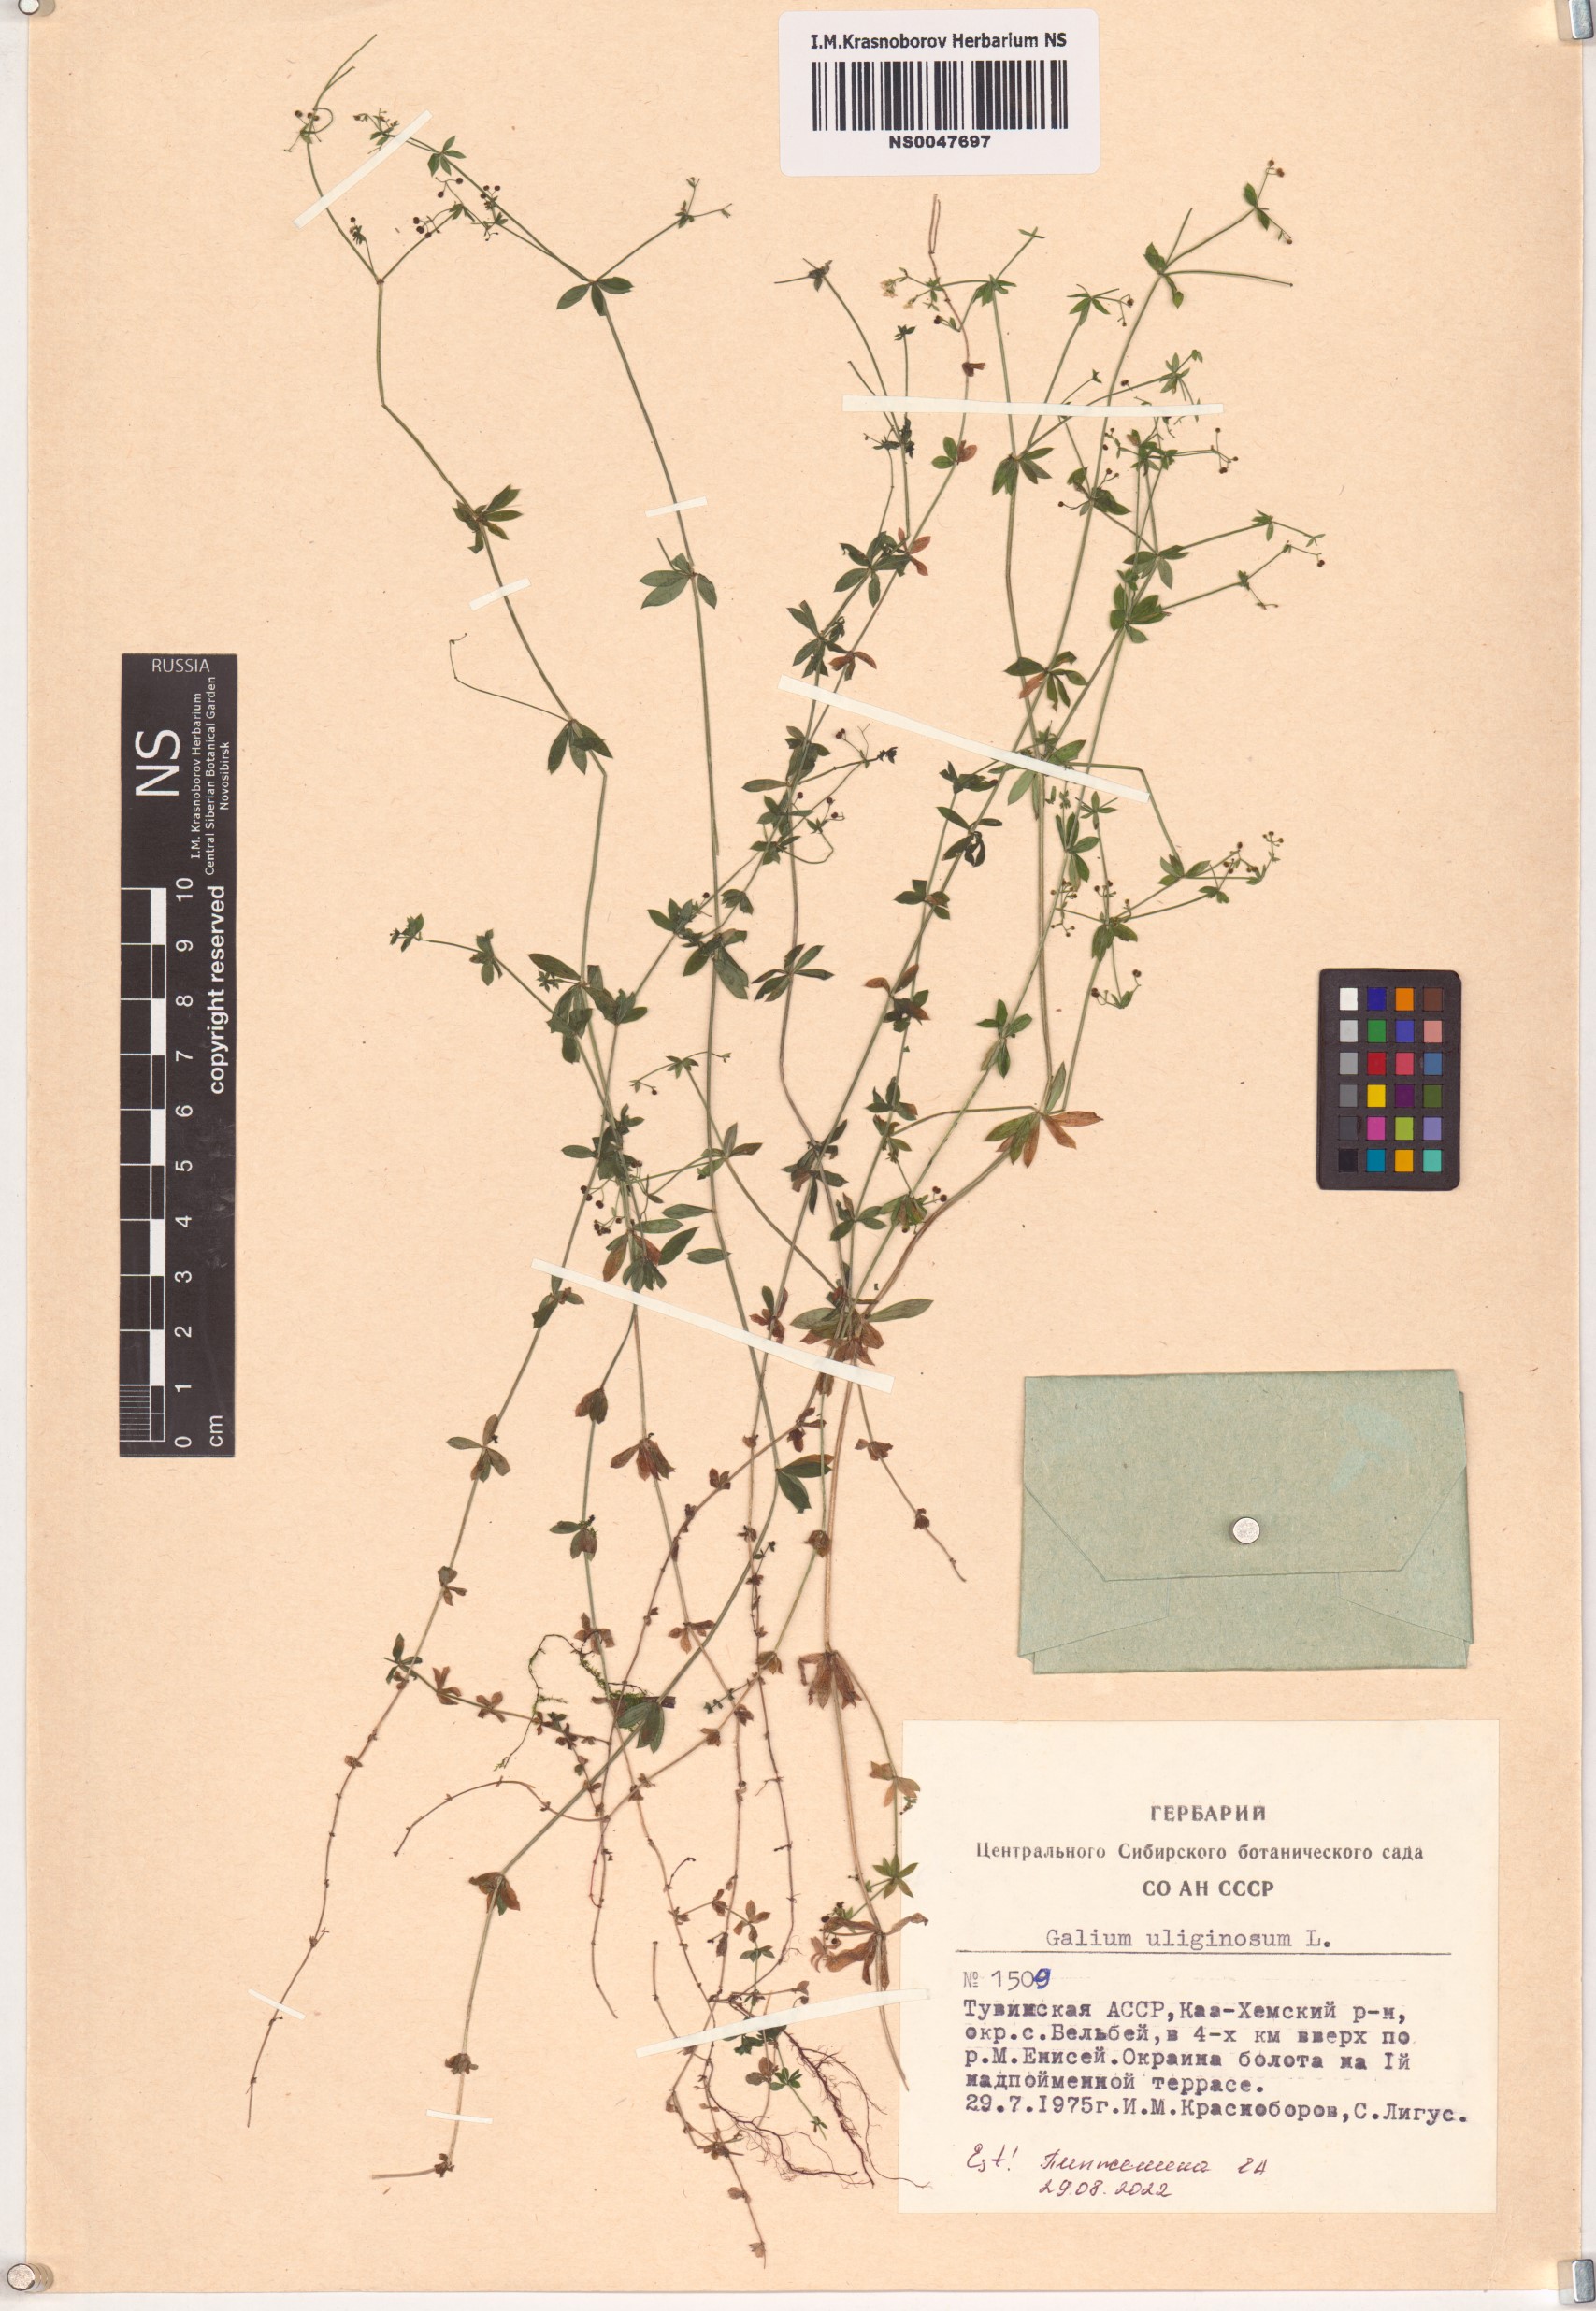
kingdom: Plantae
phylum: Tracheophyta
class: Magnoliopsida
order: Gentianales
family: Rubiaceae
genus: Galium
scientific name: Galium uliginosum
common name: Fen bedstraw
